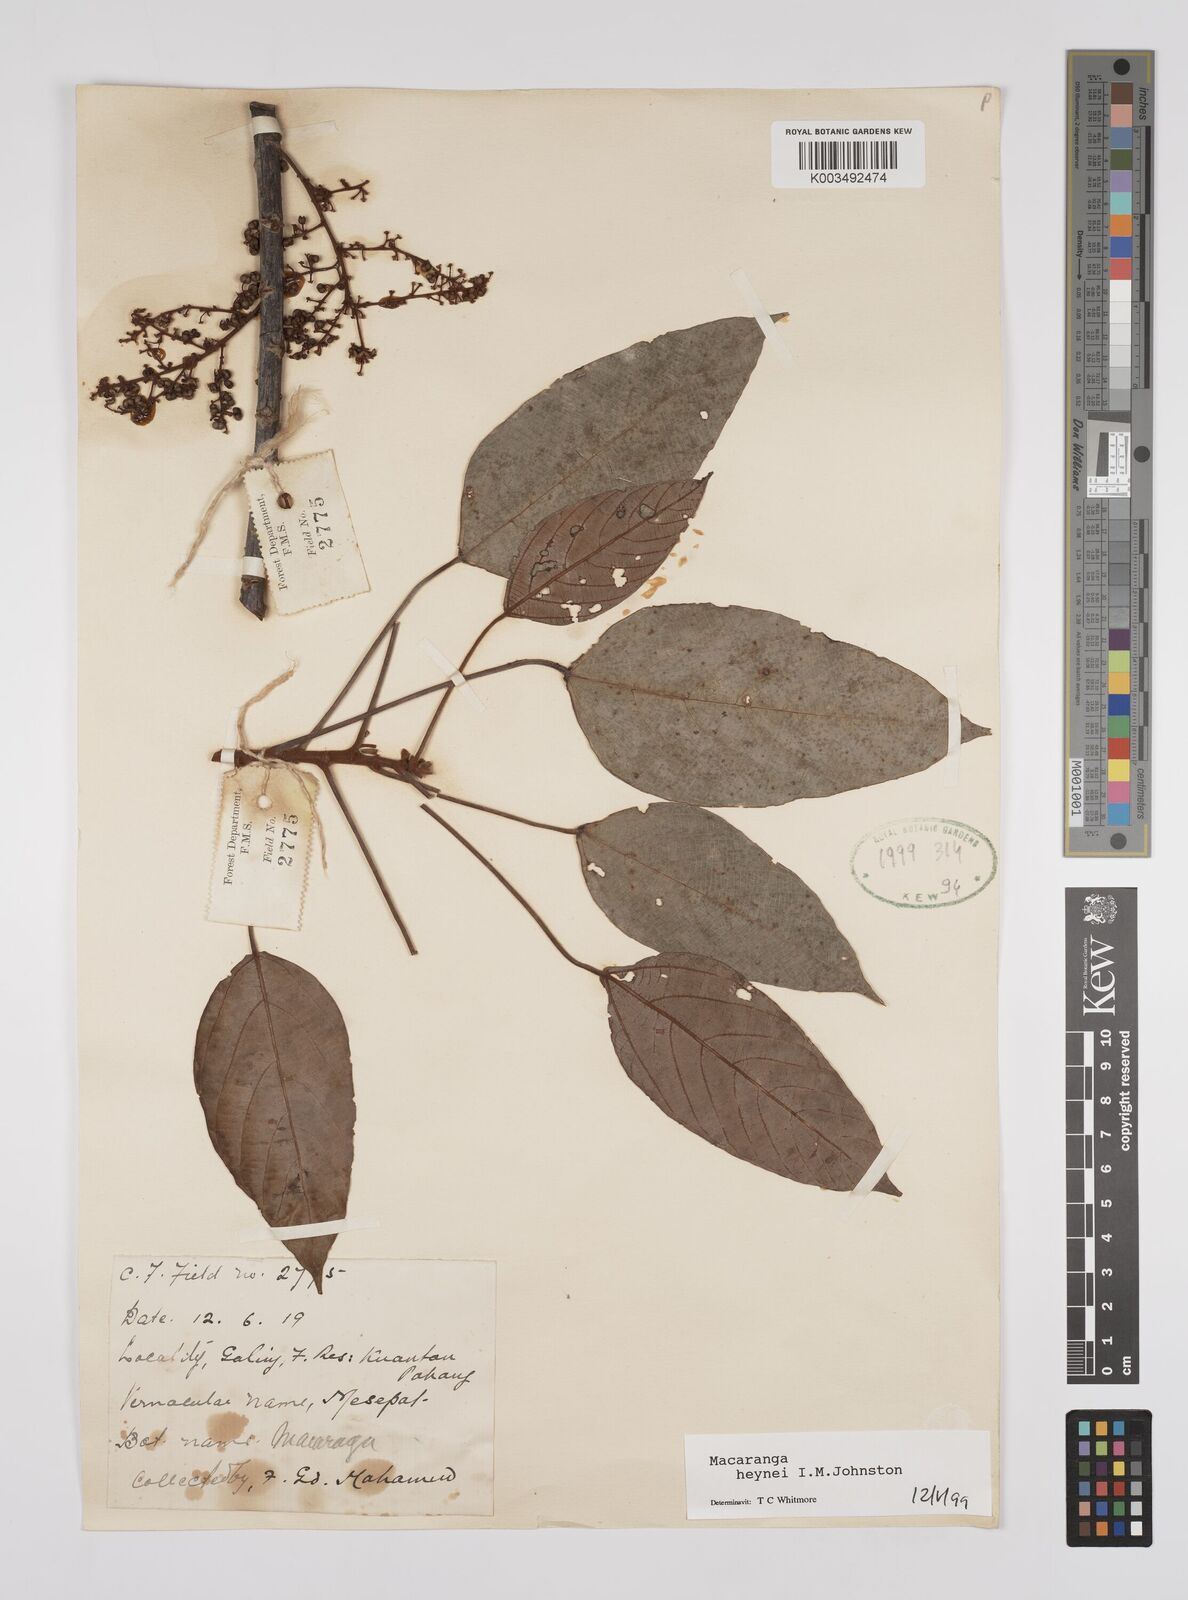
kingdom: Plantae
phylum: Tracheophyta
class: Magnoliopsida
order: Malpighiales
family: Euphorbiaceae
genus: Macaranga
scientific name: Macaranga heynei
